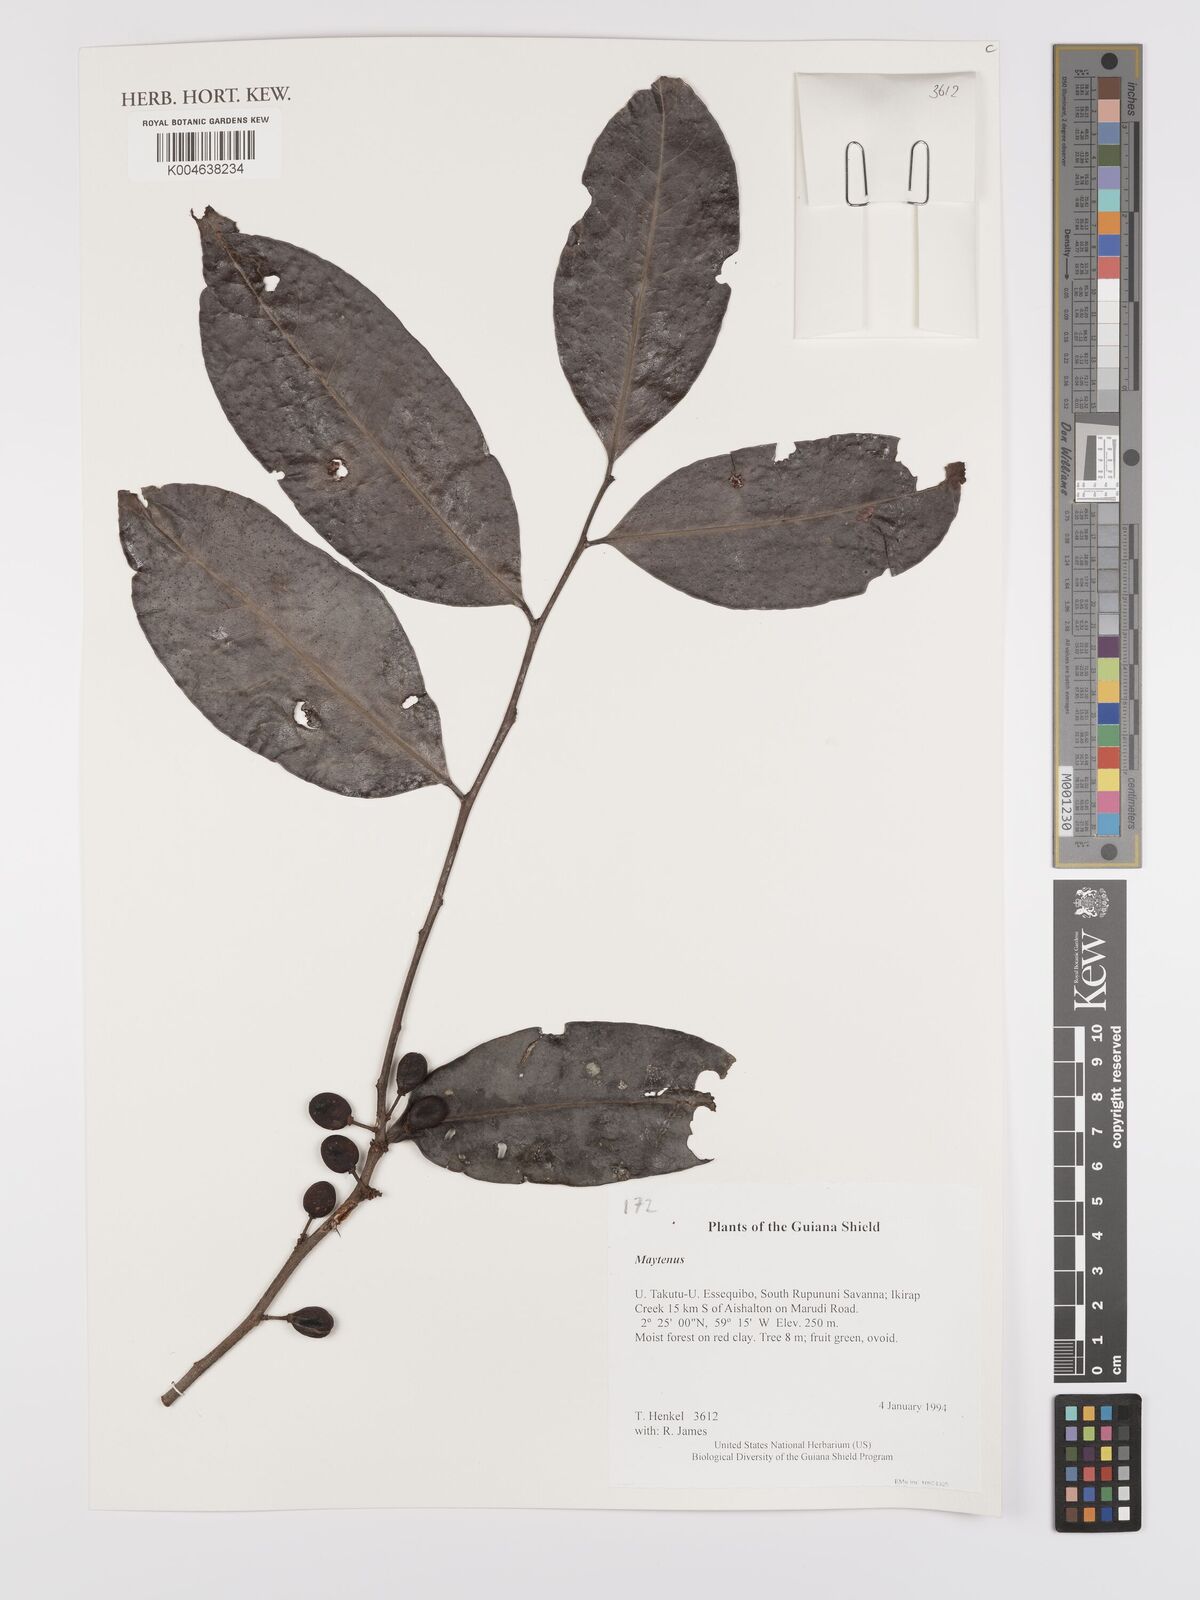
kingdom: Plantae
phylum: Tracheophyta
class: Magnoliopsida
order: Celastrales
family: Celastraceae
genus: Maytenus
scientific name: Maytenus
